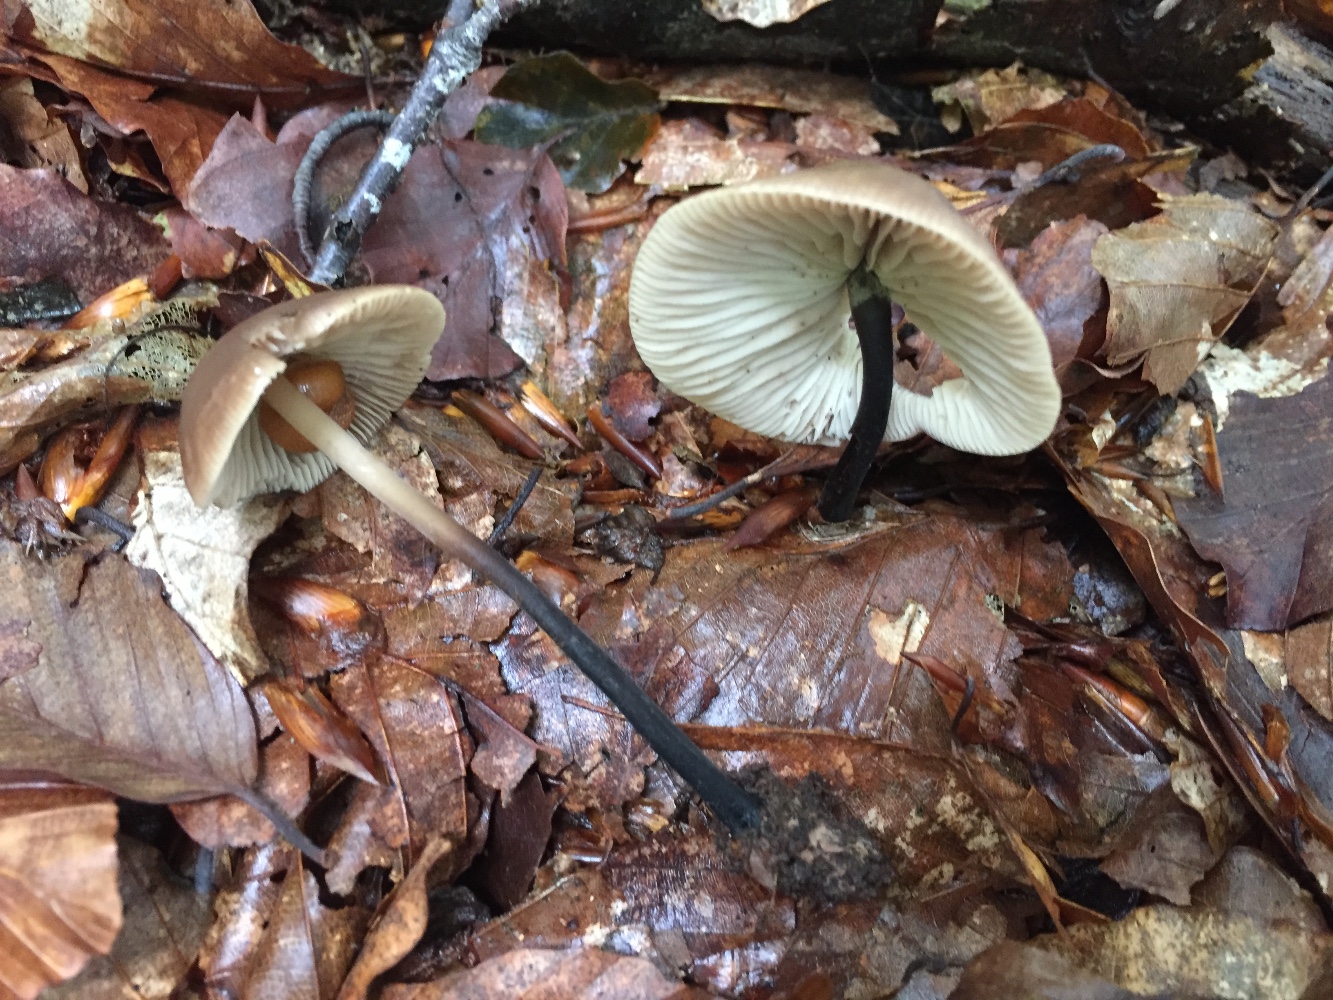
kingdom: Fungi
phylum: Basidiomycota
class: Agaricomycetes
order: Agaricales
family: Omphalotaceae
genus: Mycetinis
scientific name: Mycetinis alliaceus
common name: stor løghat
